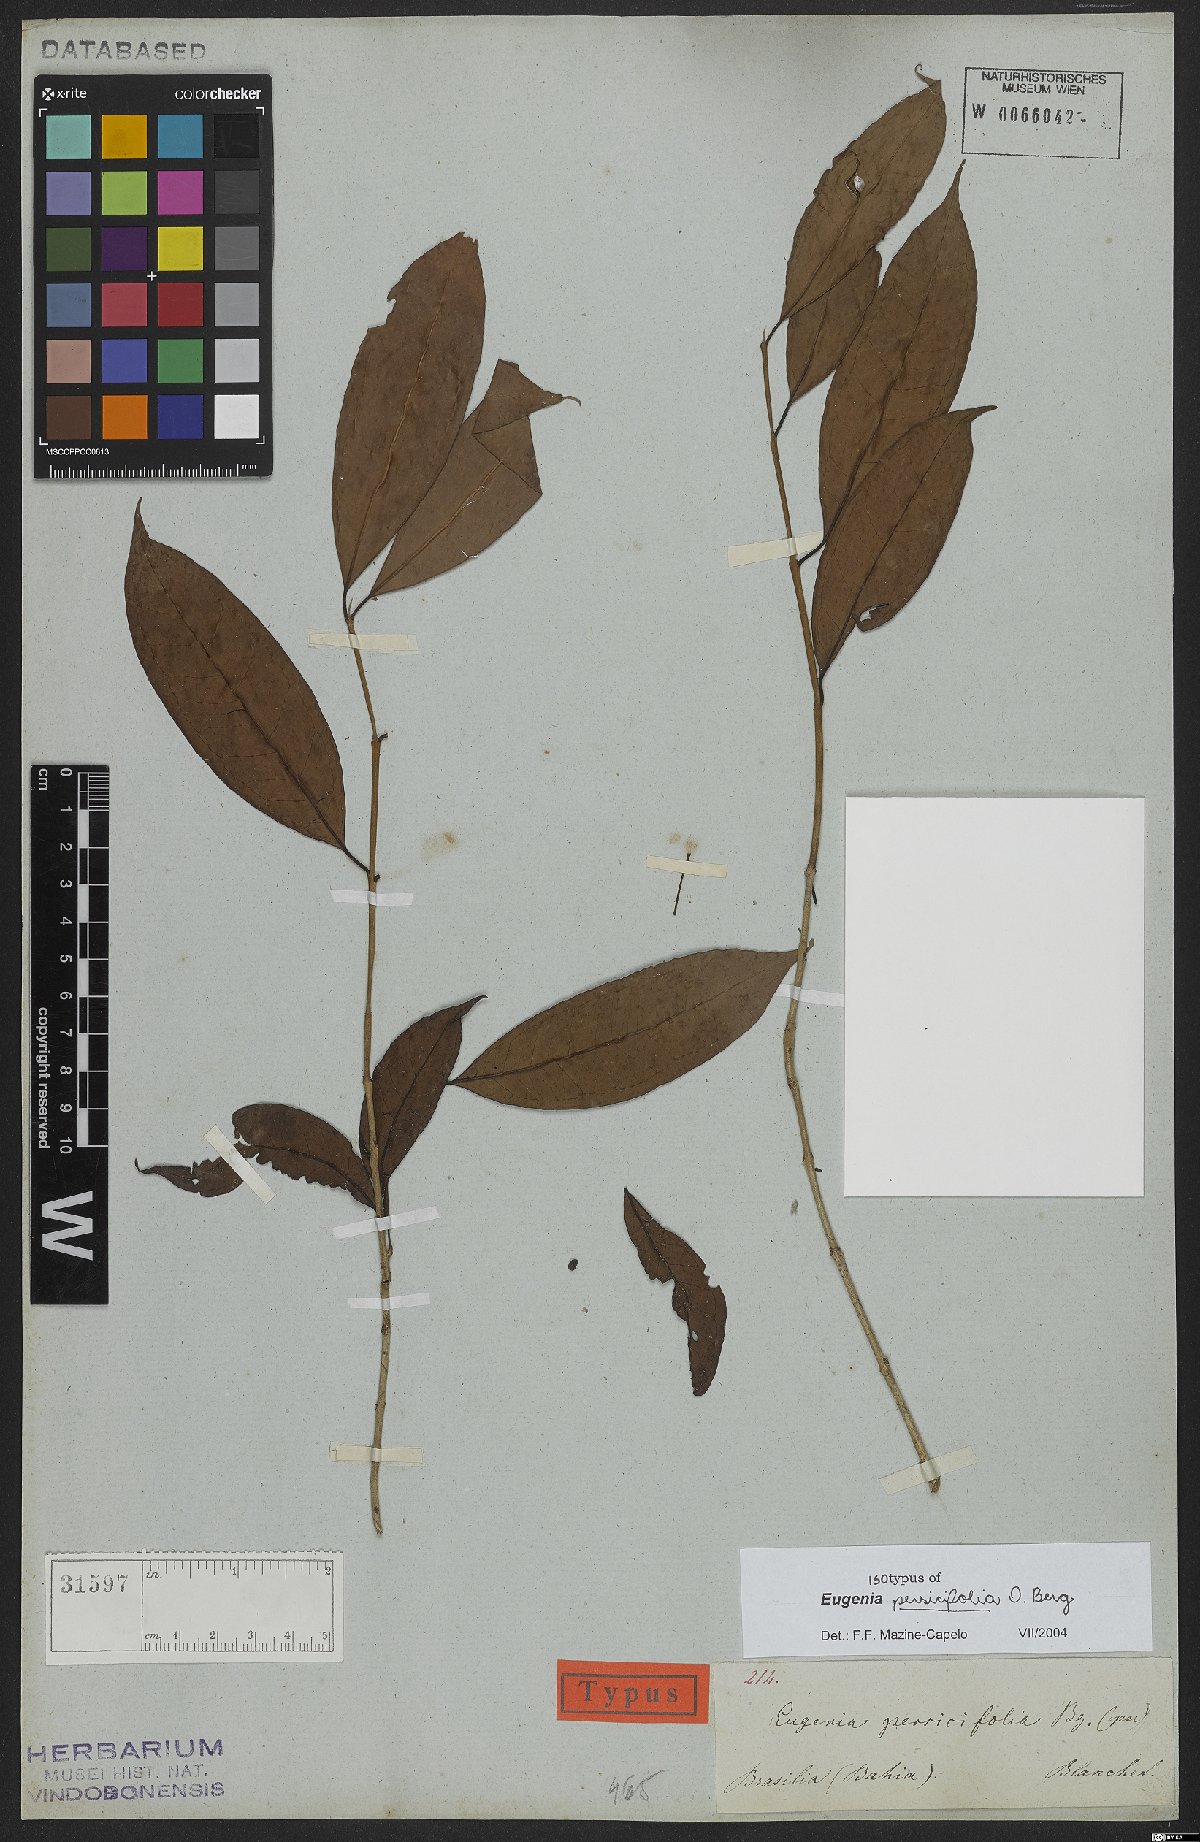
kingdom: Plantae
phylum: Tracheophyta
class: Magnoliopsida
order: Myrtales
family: Myrtaceae
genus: Eugenia
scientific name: Eugenia persicifolia
